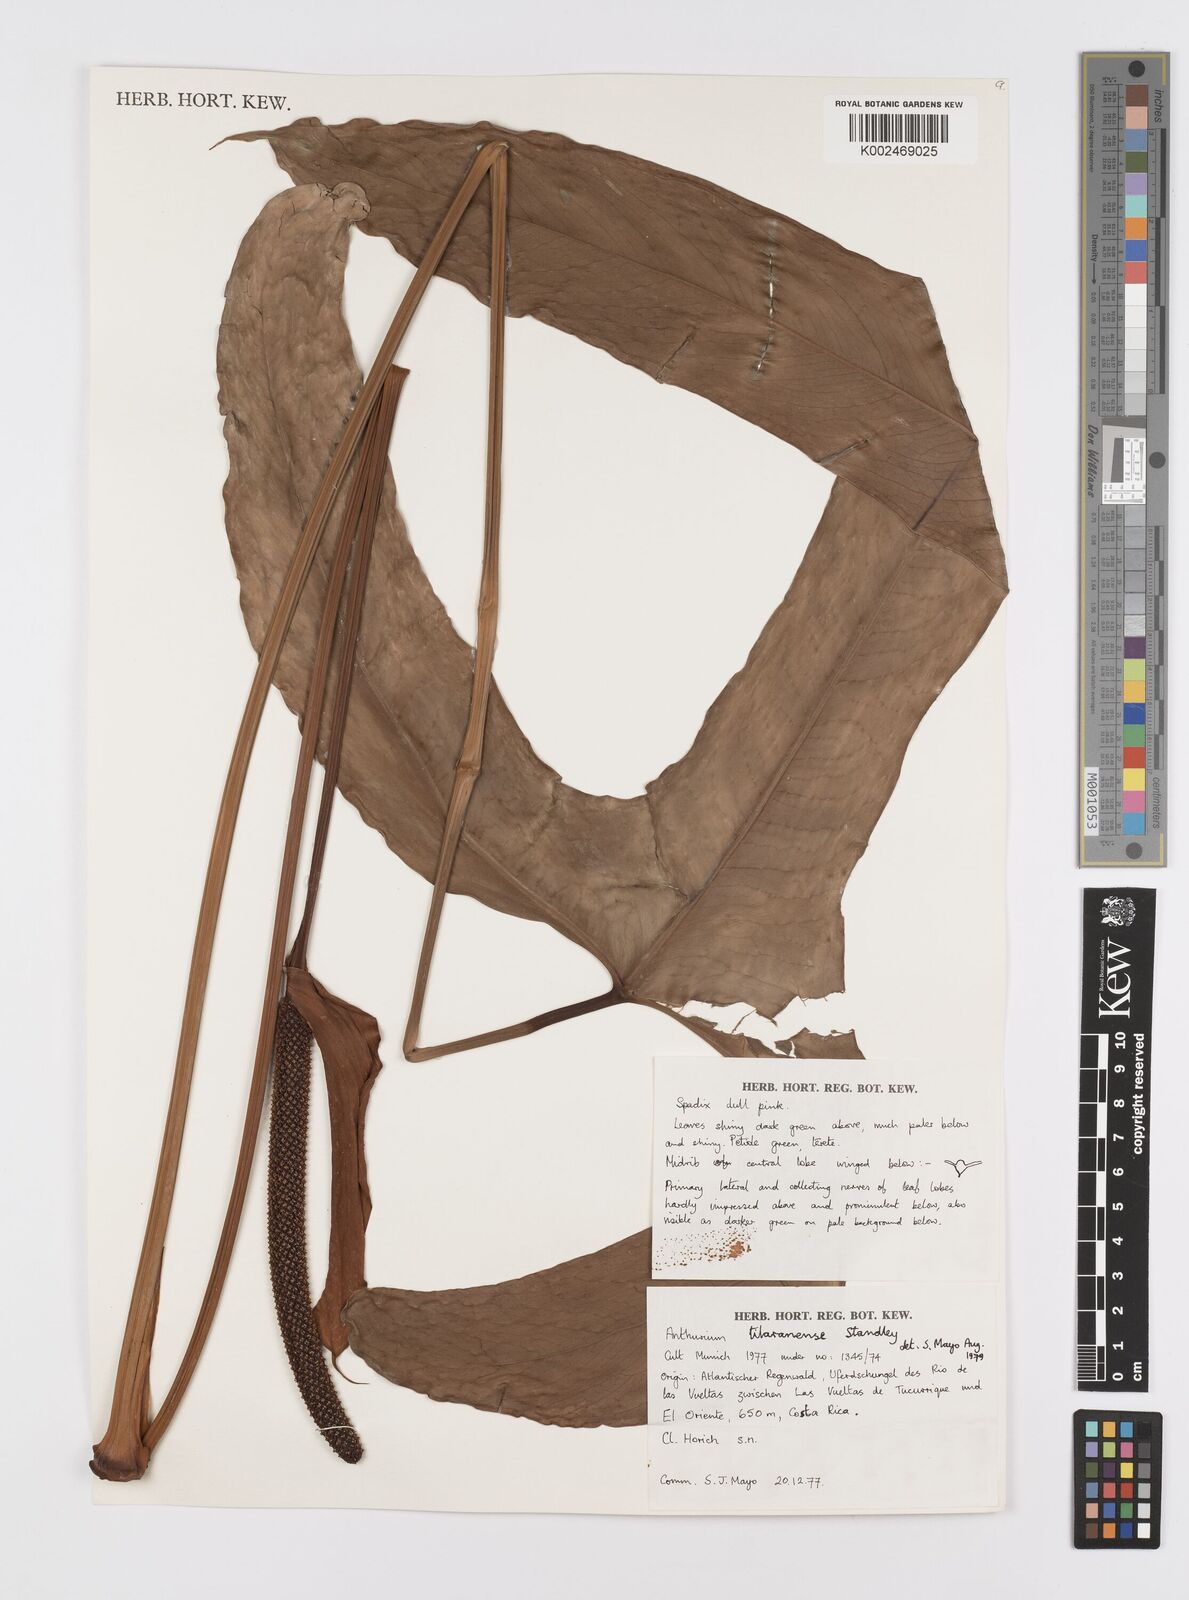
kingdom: Plantae
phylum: Tracheophyta
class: Liliopsida
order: Alismatales
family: Araceae
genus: Anthurium
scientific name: Anthurium tilaranense
